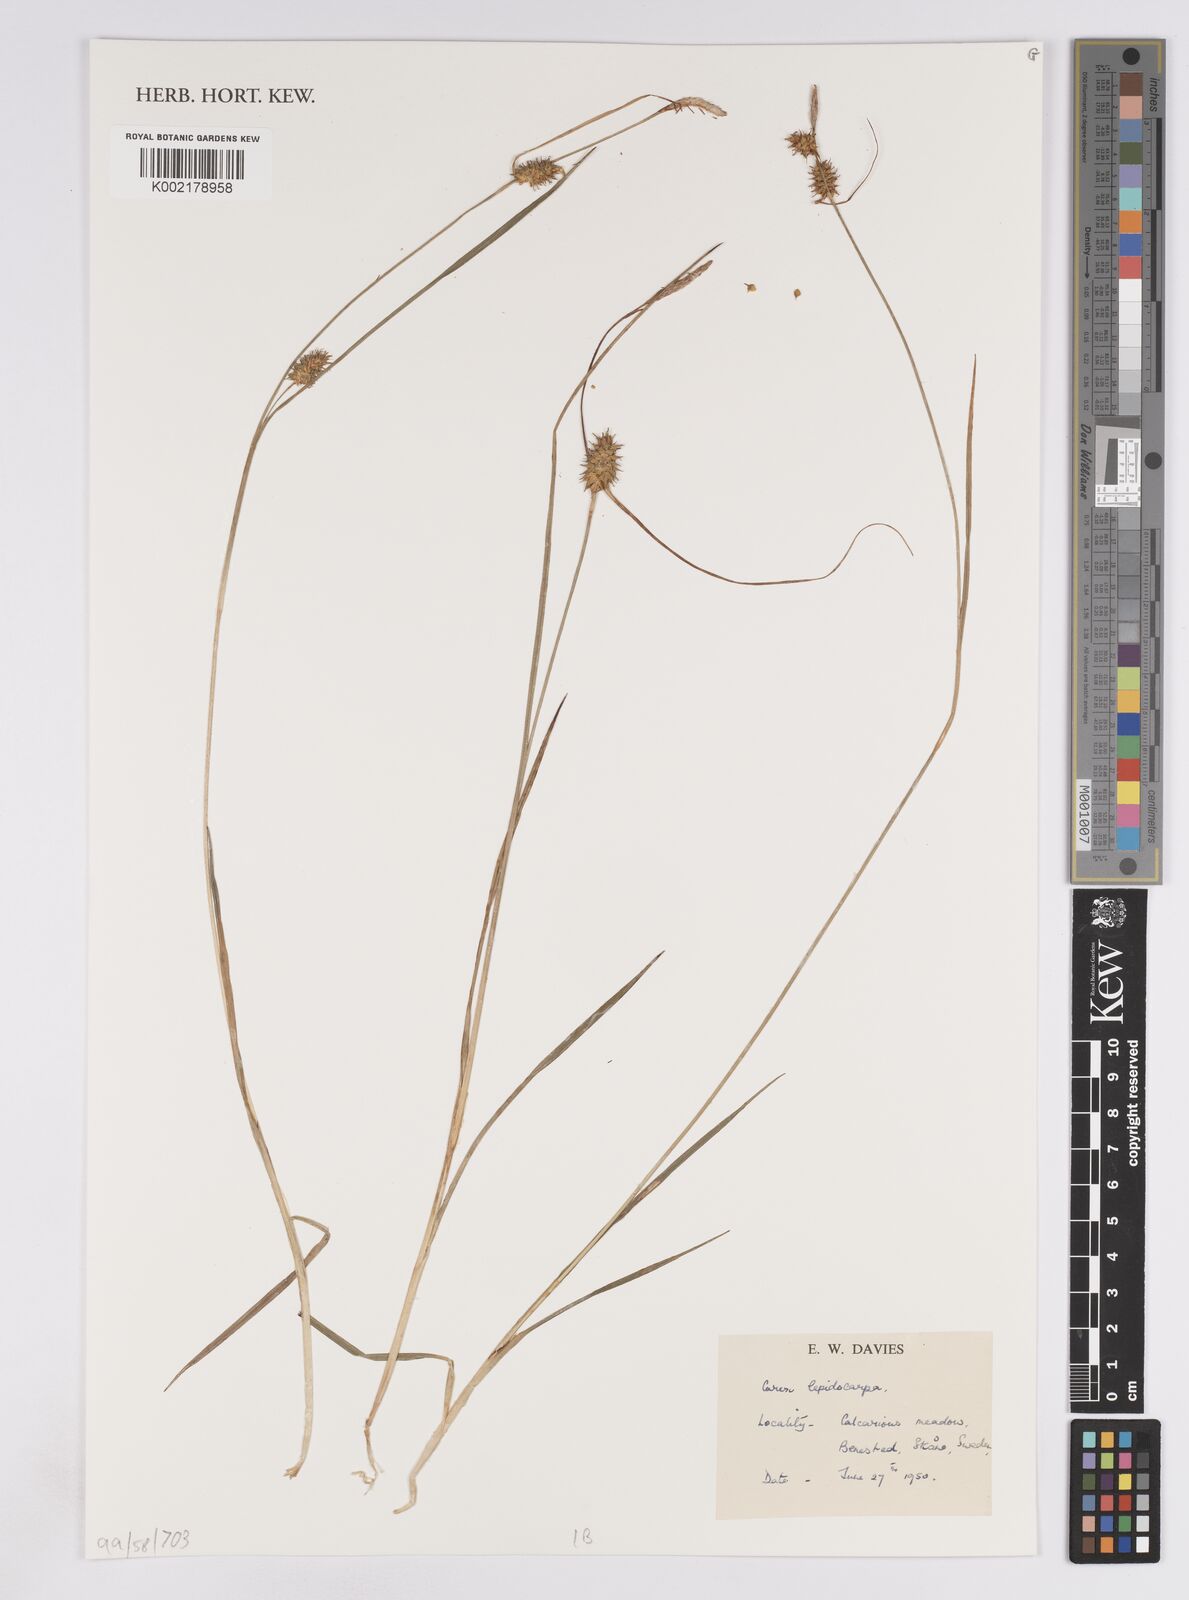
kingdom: Plantae
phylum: Tracheophyta
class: Liliopsida
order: Poales
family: Cyperaceae
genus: Carex
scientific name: Carex lepidocarpa
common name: Long-stalked yellow-sedge
